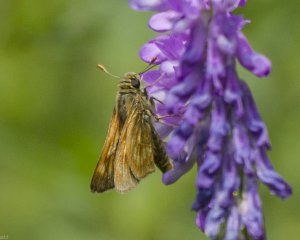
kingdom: Animalia
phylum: Arthropoda
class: Insecta
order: Lepidoptera
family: Hesperiidae
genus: Polites
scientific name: Polites
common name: Long Dash Skipper
